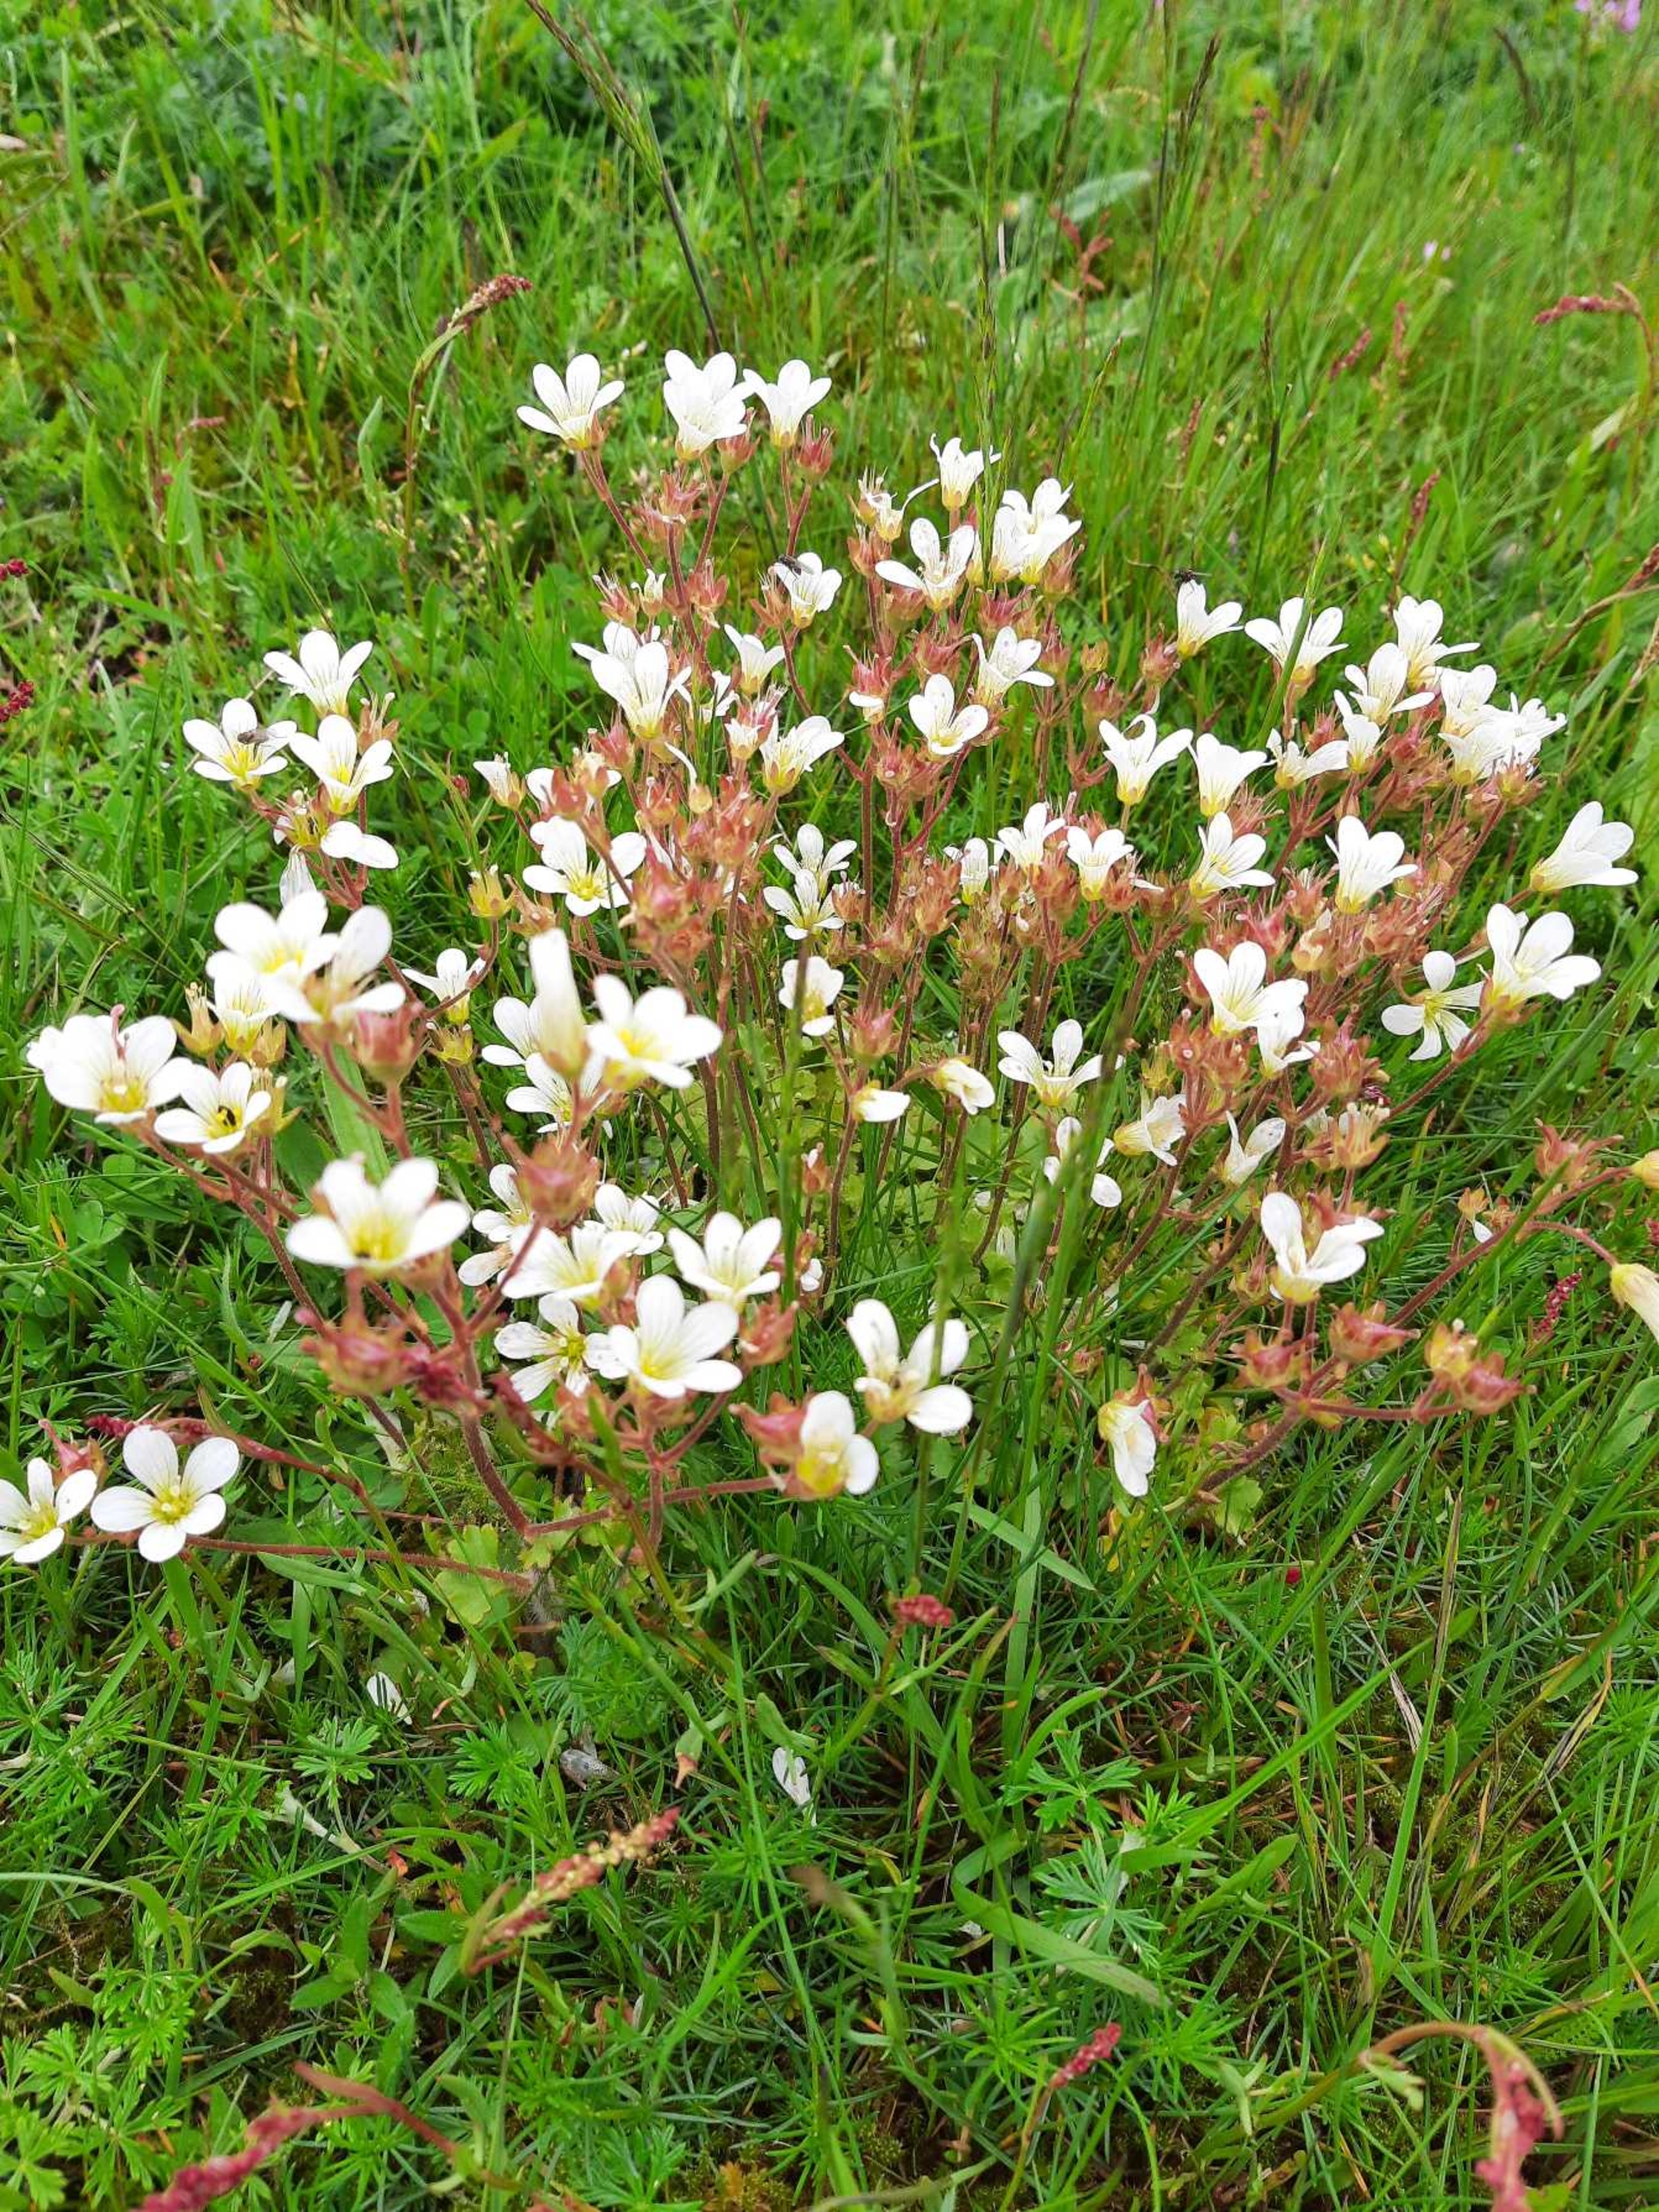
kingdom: Plantae
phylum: Tracheophyta
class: Magnoliopsida
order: Saxifragales
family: Saxifragaceae
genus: Saxifraga
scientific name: Saxifraga granulata
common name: Kornet stenbræk
